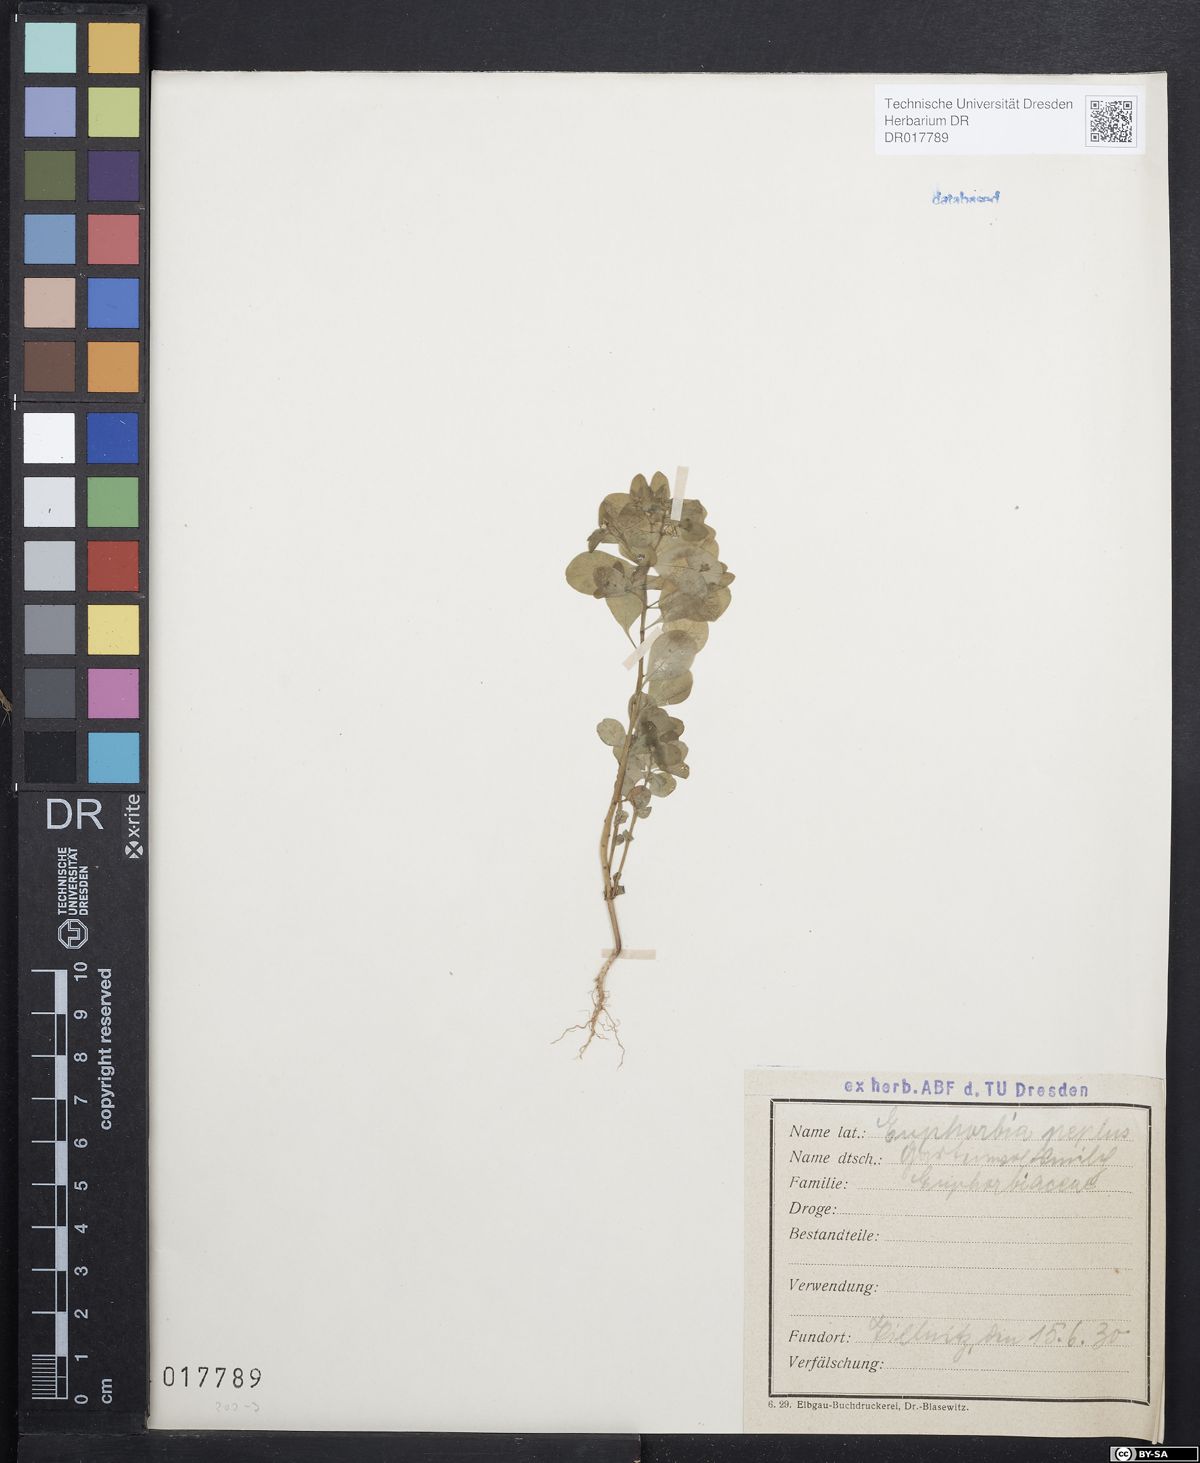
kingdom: Plantae
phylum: Tracheophyta
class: Magnoliopsida
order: Malpighiales
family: Euphorbiaceae
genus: Euphorbia
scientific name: Euphorbia peplus
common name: Petty spurge
